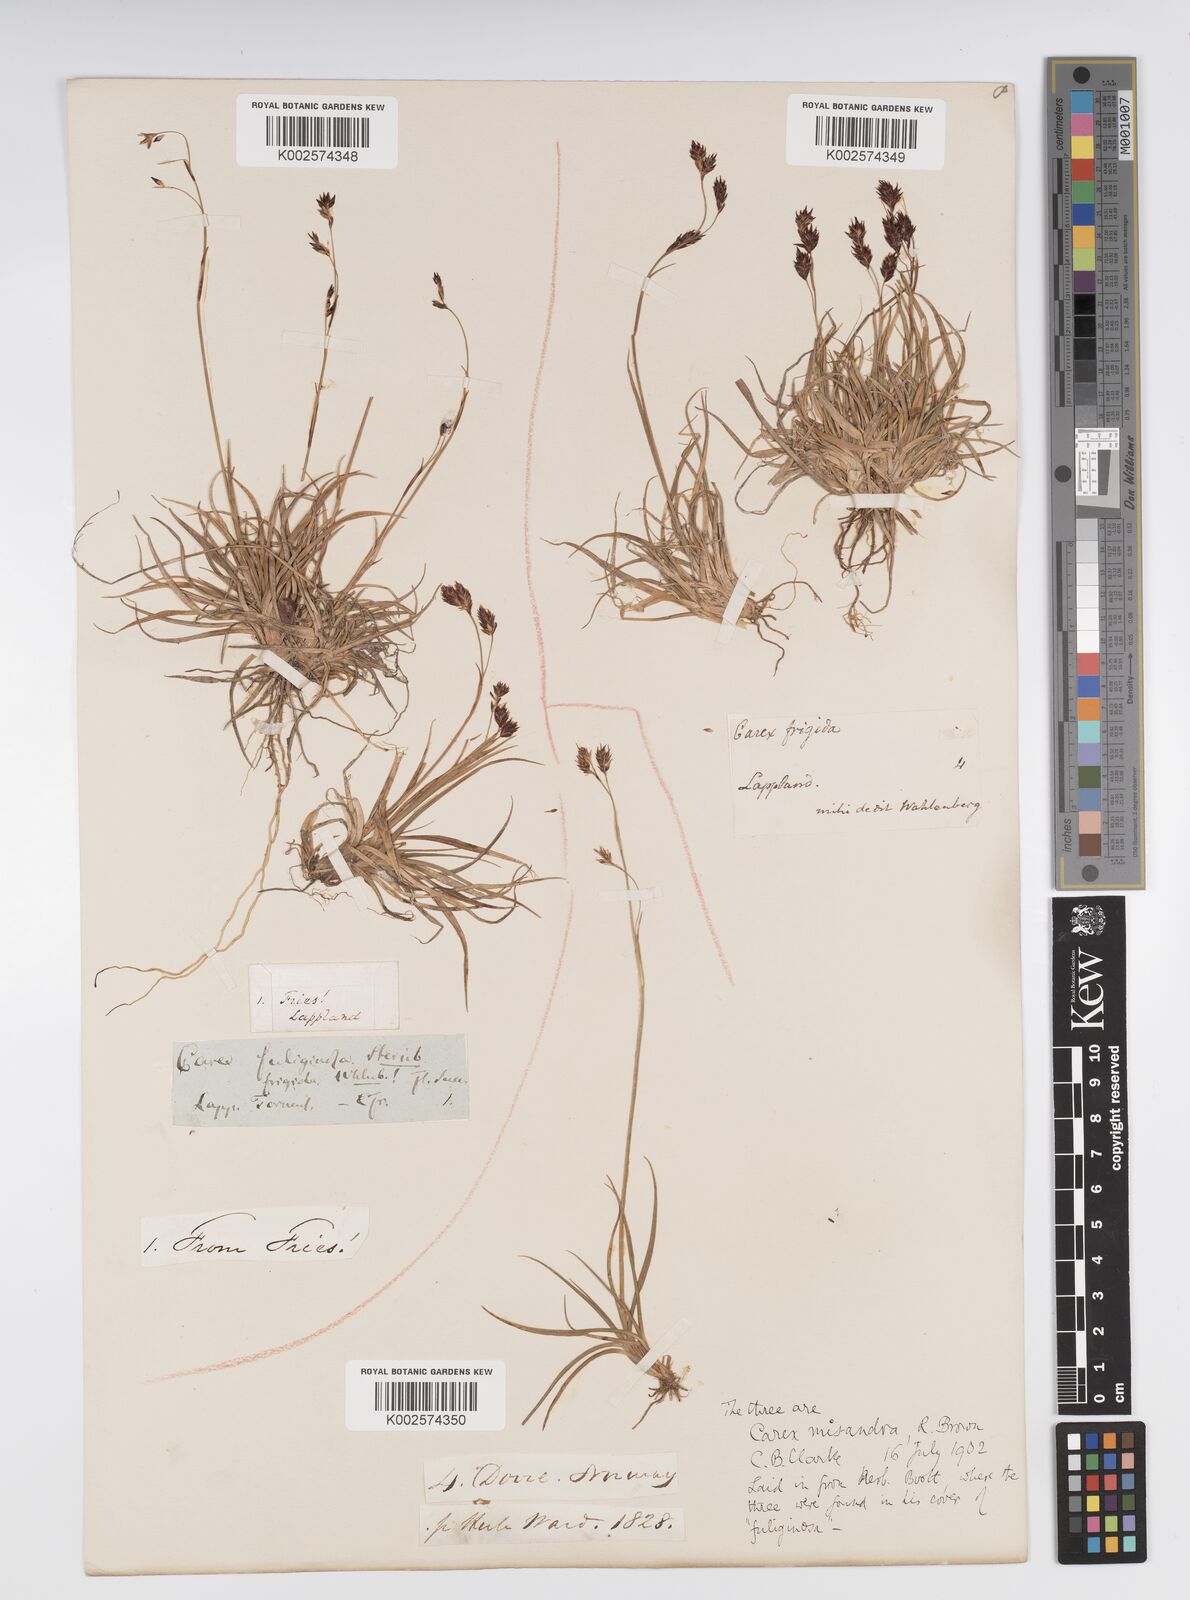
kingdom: Plantae
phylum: Tracheophyta
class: Liliopsida
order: Poales
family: Cyperaceae
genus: Carex
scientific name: Carex fuliginosa
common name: Few-flowered sedge
